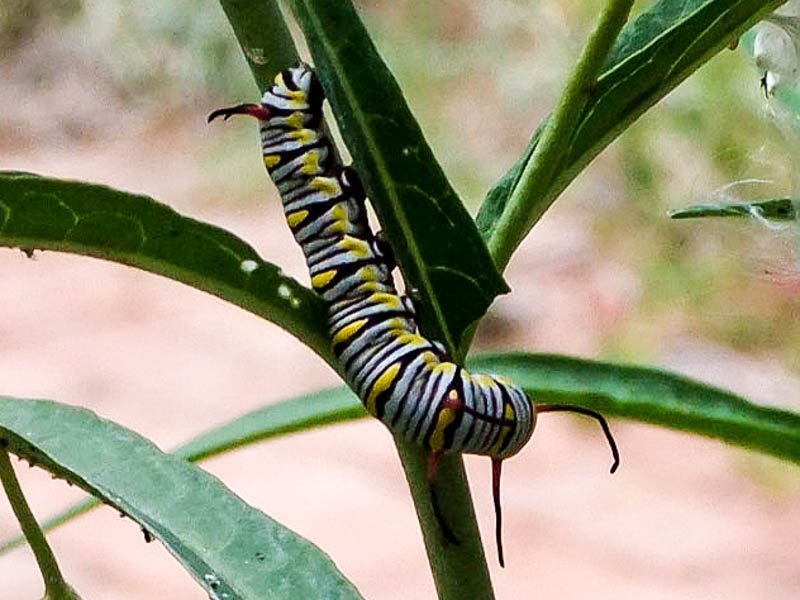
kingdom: Animalia
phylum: Arthropoda
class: Insecta
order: Lepidoptera
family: Nymphalidae
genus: Danaus
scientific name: Danaus gilippus
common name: Queen
